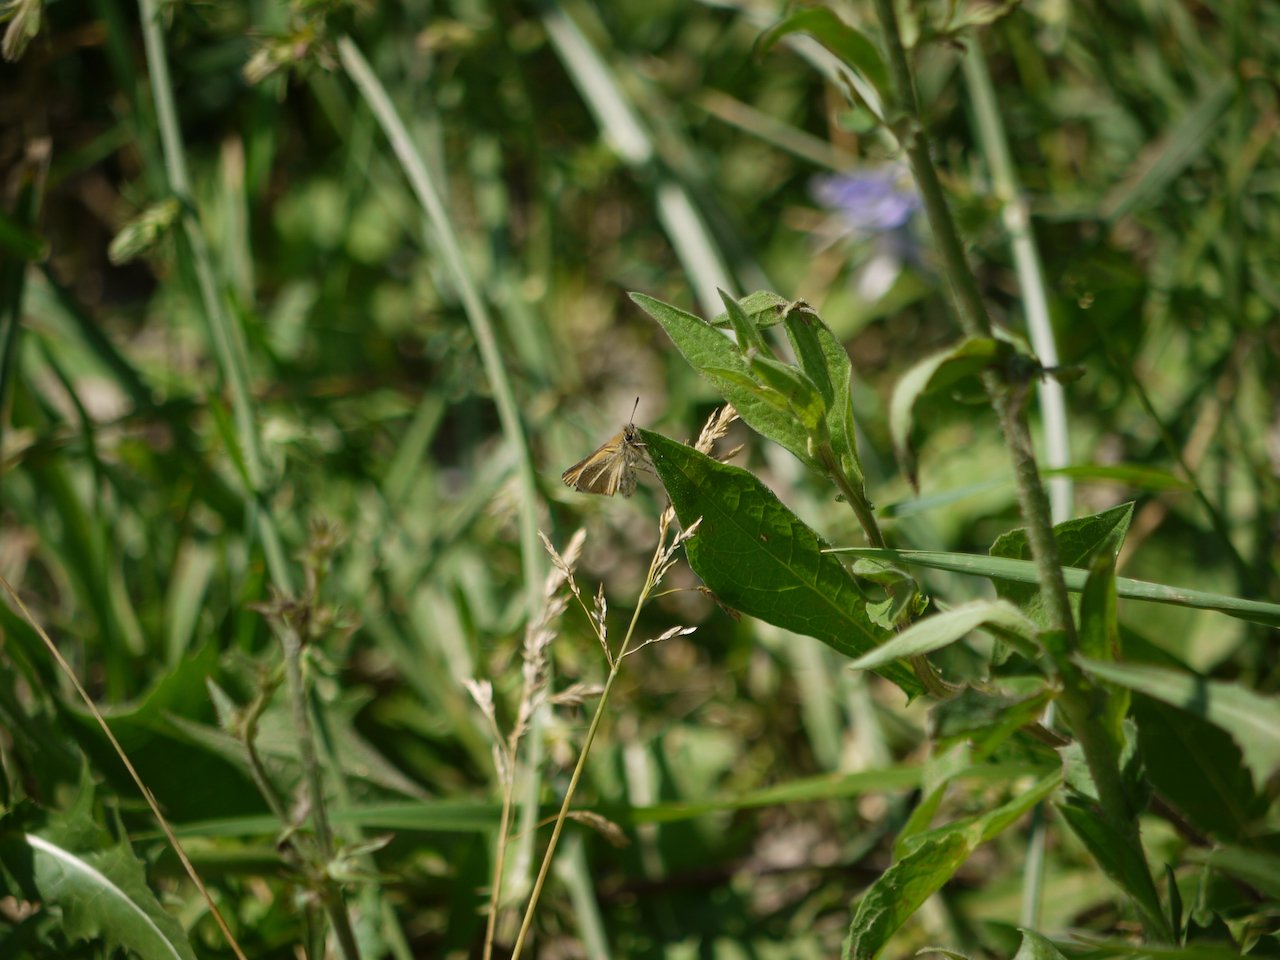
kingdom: Animalia
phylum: Arthropoda
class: Insecta
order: Lepidoptera
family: Hesperiidae
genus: Thymelicus
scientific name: Thymelicus lineola
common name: European Skipper
